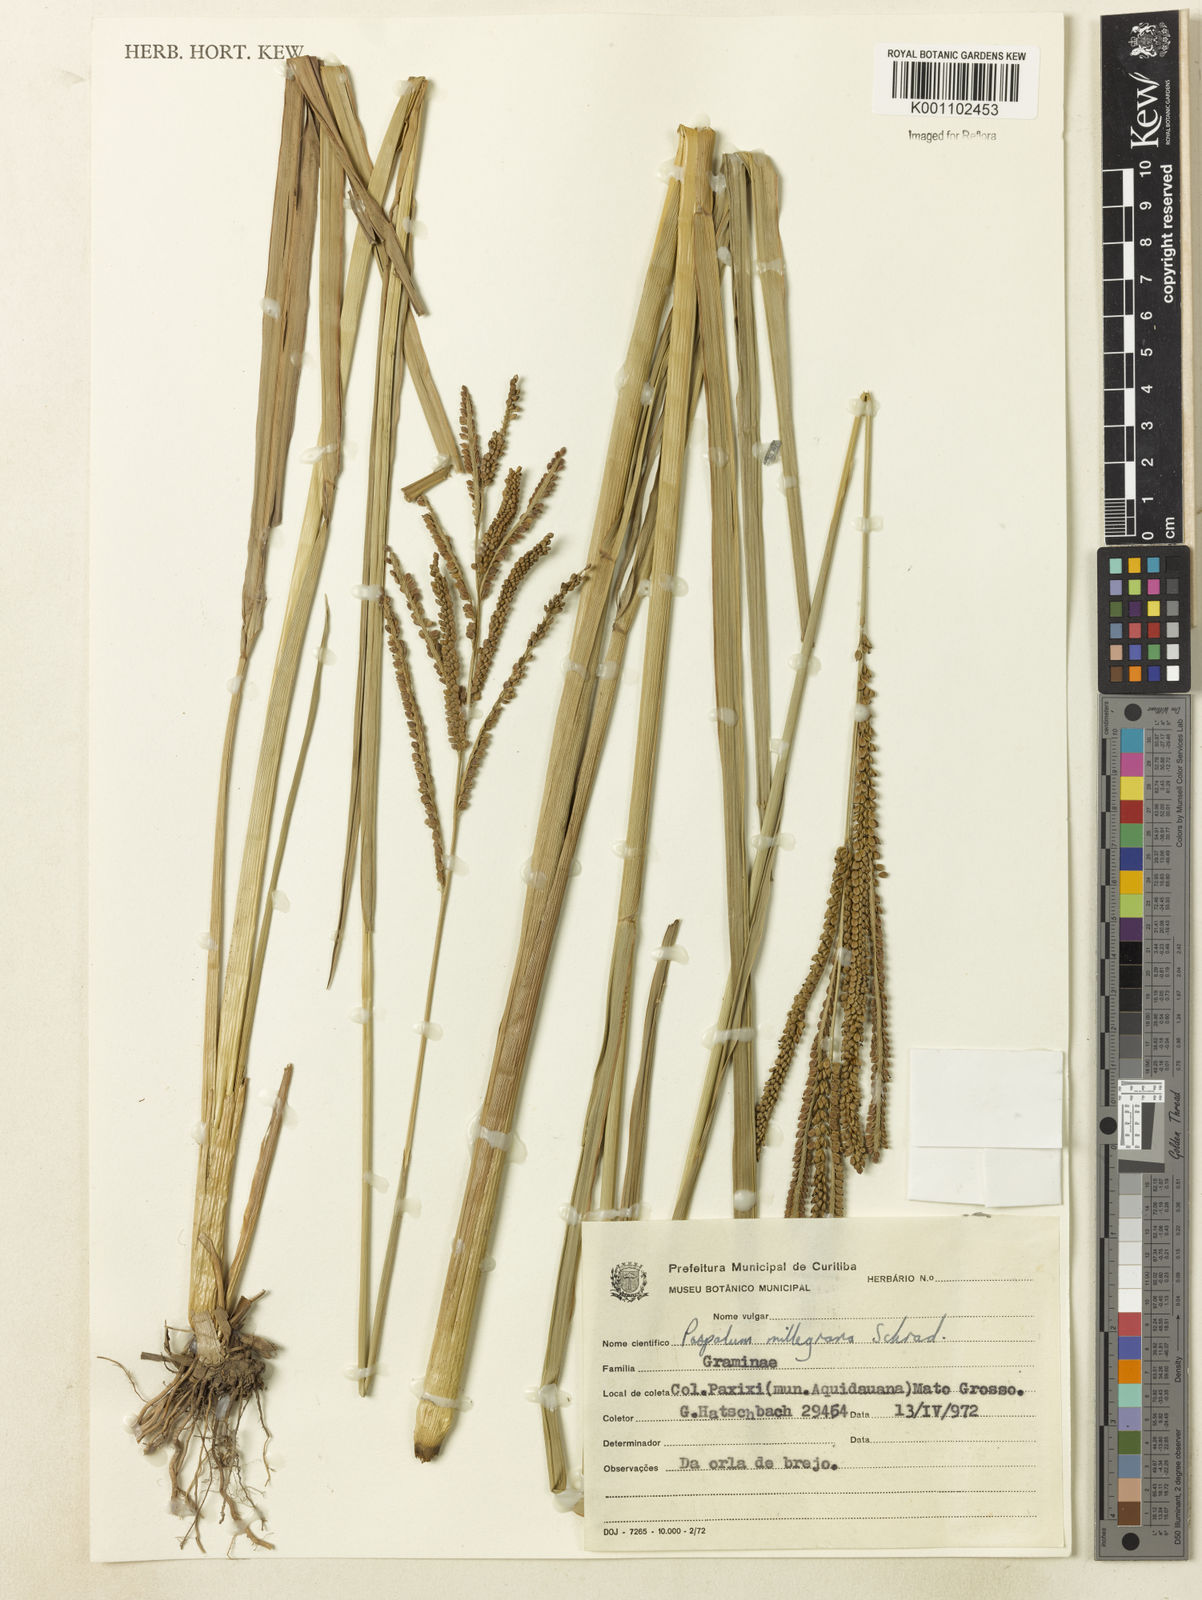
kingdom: Plantae
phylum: Tracheophyta
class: Liliopsida
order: Poales
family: Poaceae
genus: Paspalum
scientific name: Paspalum virgatum
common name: Talquezal
